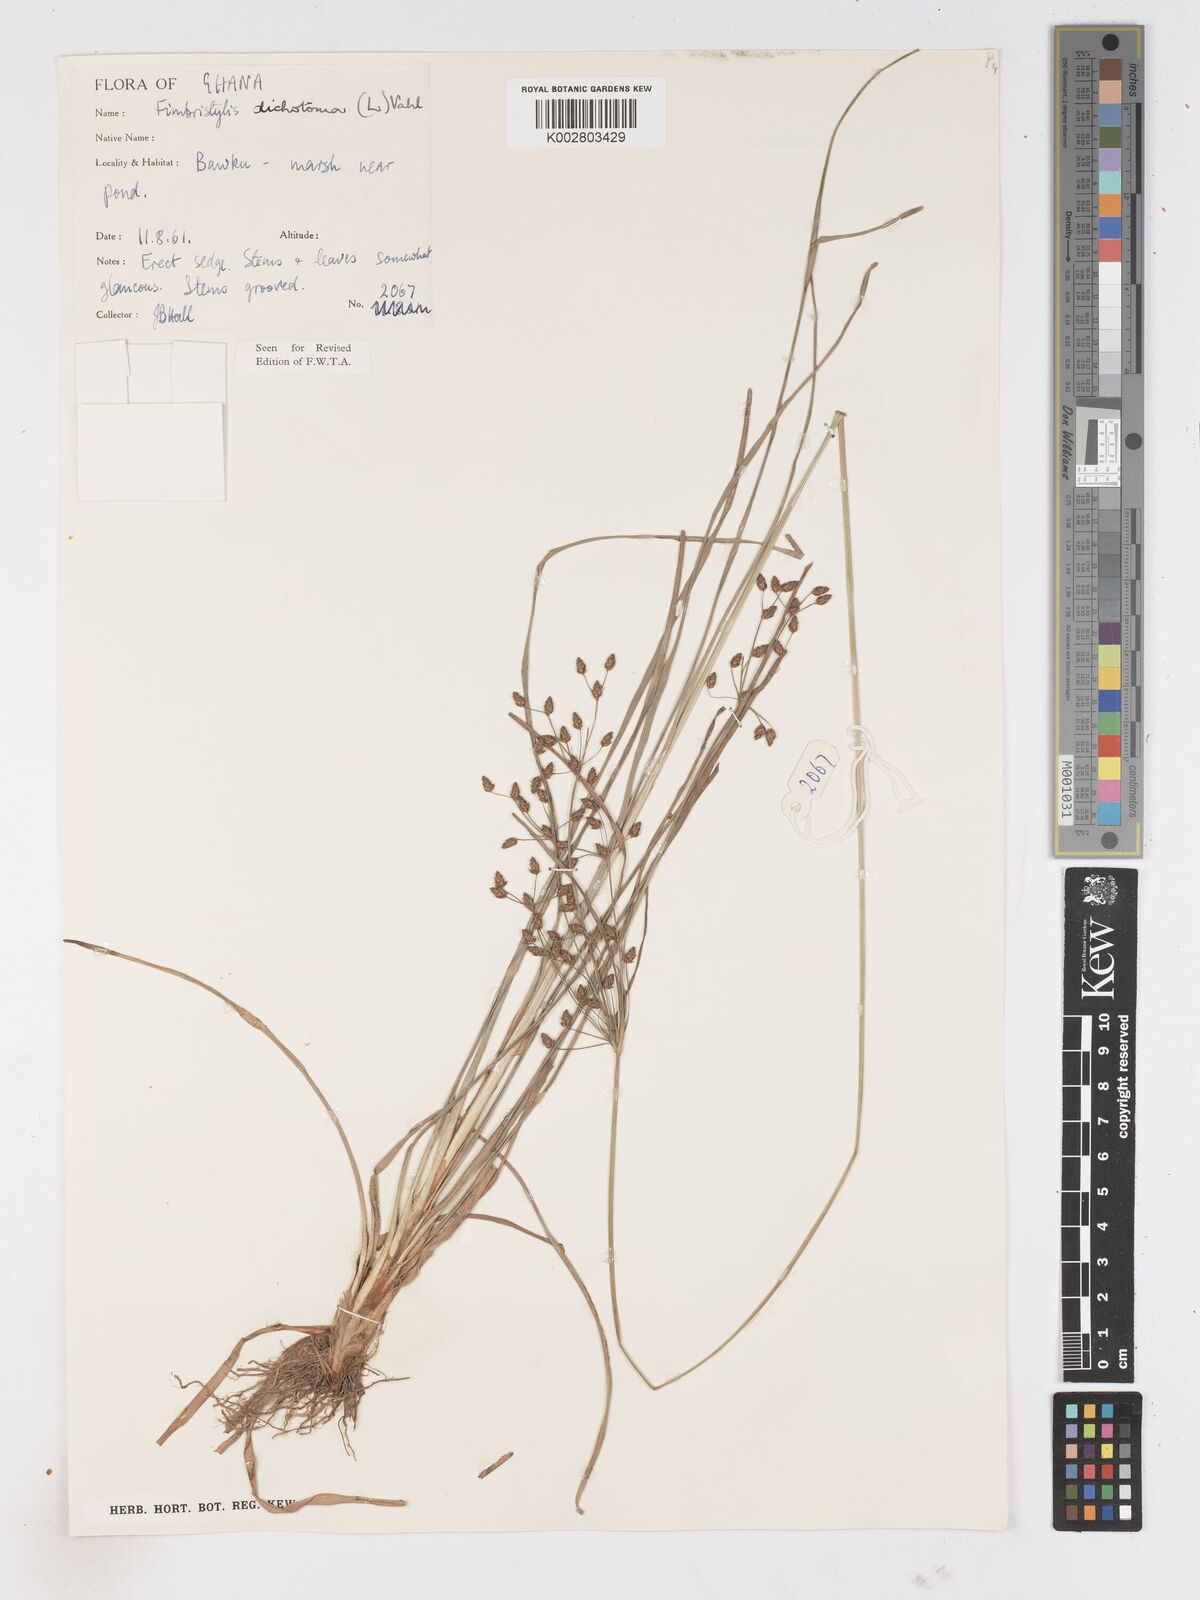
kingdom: Plantae
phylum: Tracheophyta
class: Liliopsida
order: Poales
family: Cyperaceae
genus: Fimbristylis
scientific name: Fimbristylis dichotoma
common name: Forked fimbry
